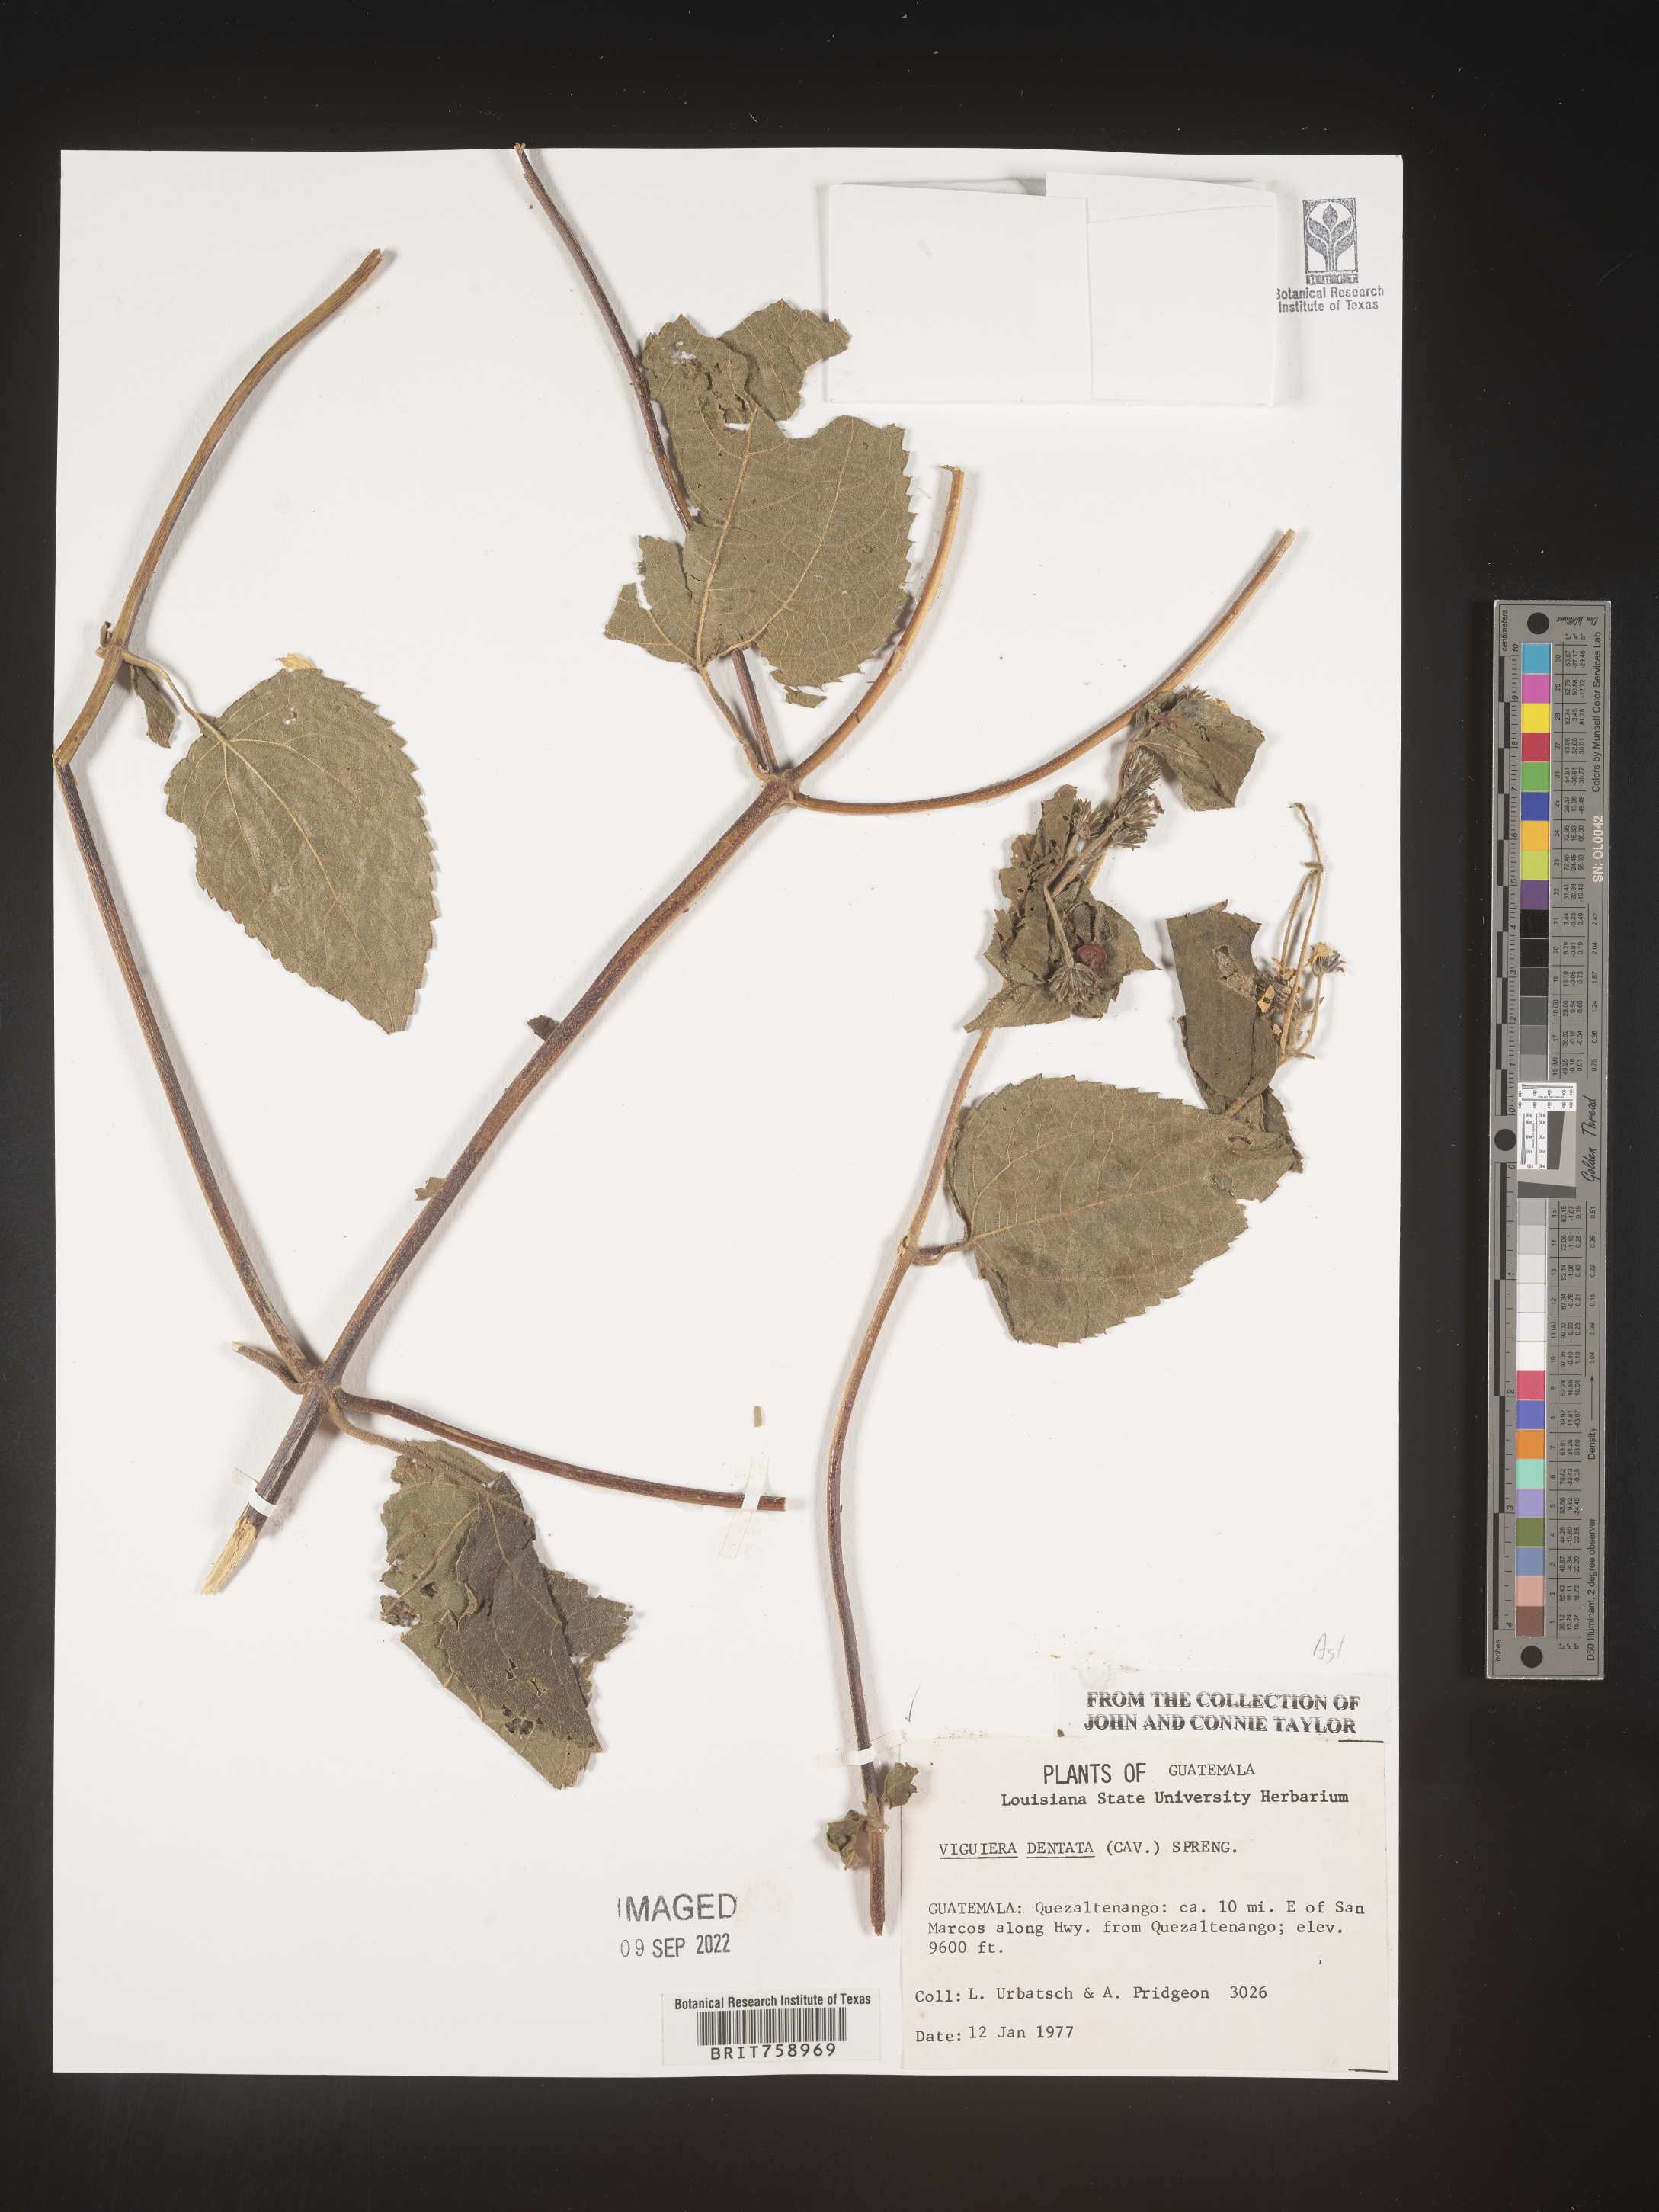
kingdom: Plantae
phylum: Tracheophyta
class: Magnoliopsida
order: Asterales
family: Asteraceae
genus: Viguiera
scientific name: Viguiera
